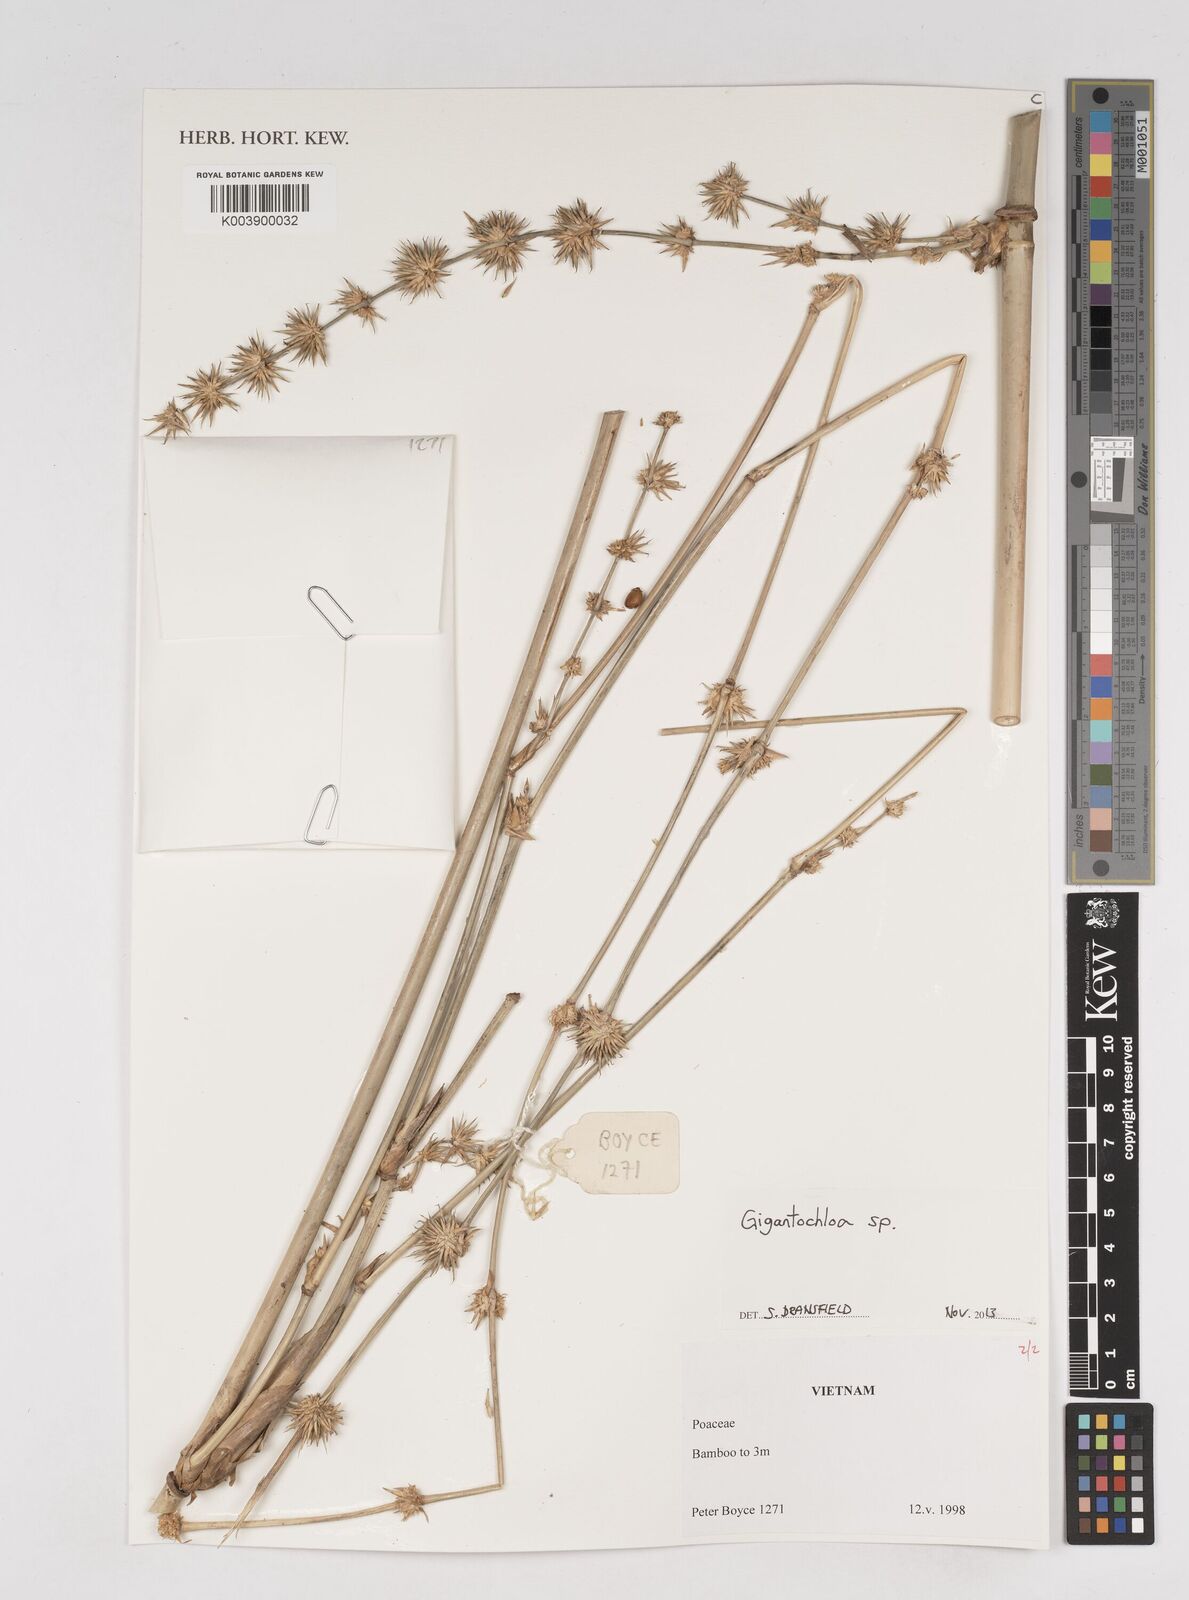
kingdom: Plantae
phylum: Tracheophyta
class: Liliopsida
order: Poales
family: Poaceae
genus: Gigantochloa
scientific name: Gigantochloa
